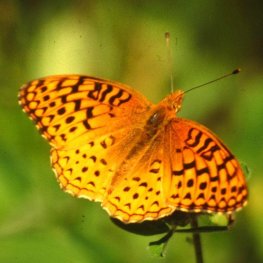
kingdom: Animalia
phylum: Arthropoda
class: Insecta
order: Lepidoptera
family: Nymphalidae
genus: Speyeria
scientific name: Speyeria aphrodite
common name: Aphrodite Fritillary
